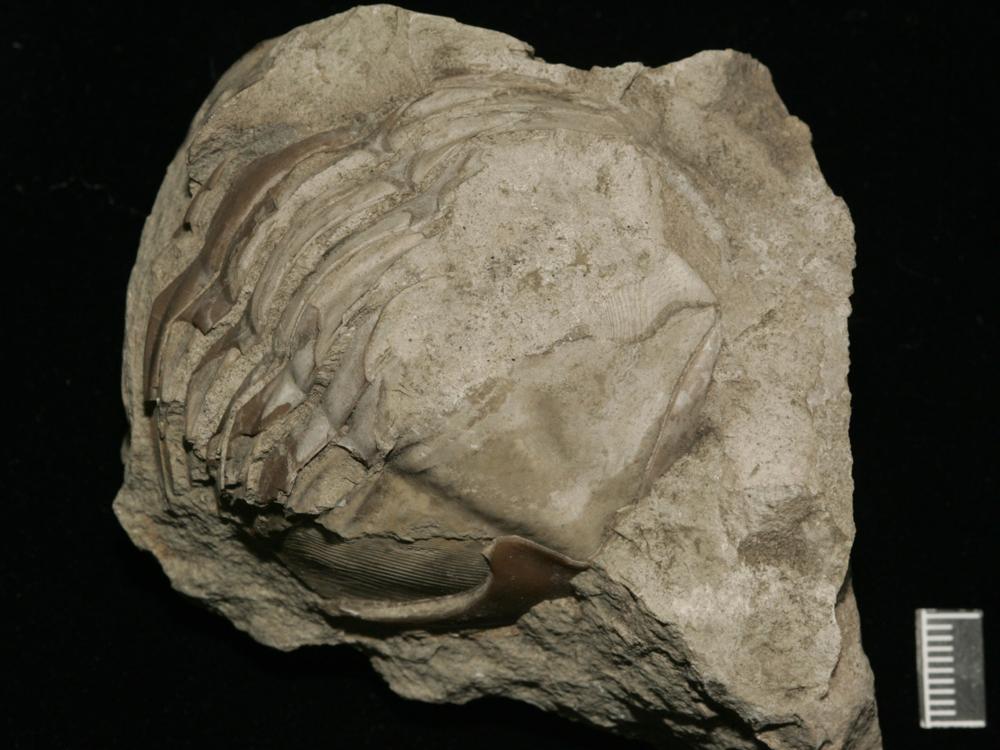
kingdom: Animalia
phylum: Arthropoda
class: Trilobita
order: Asaphida
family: Asaphidae
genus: Pseudasaphus
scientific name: Pseudasaphus globifrons
